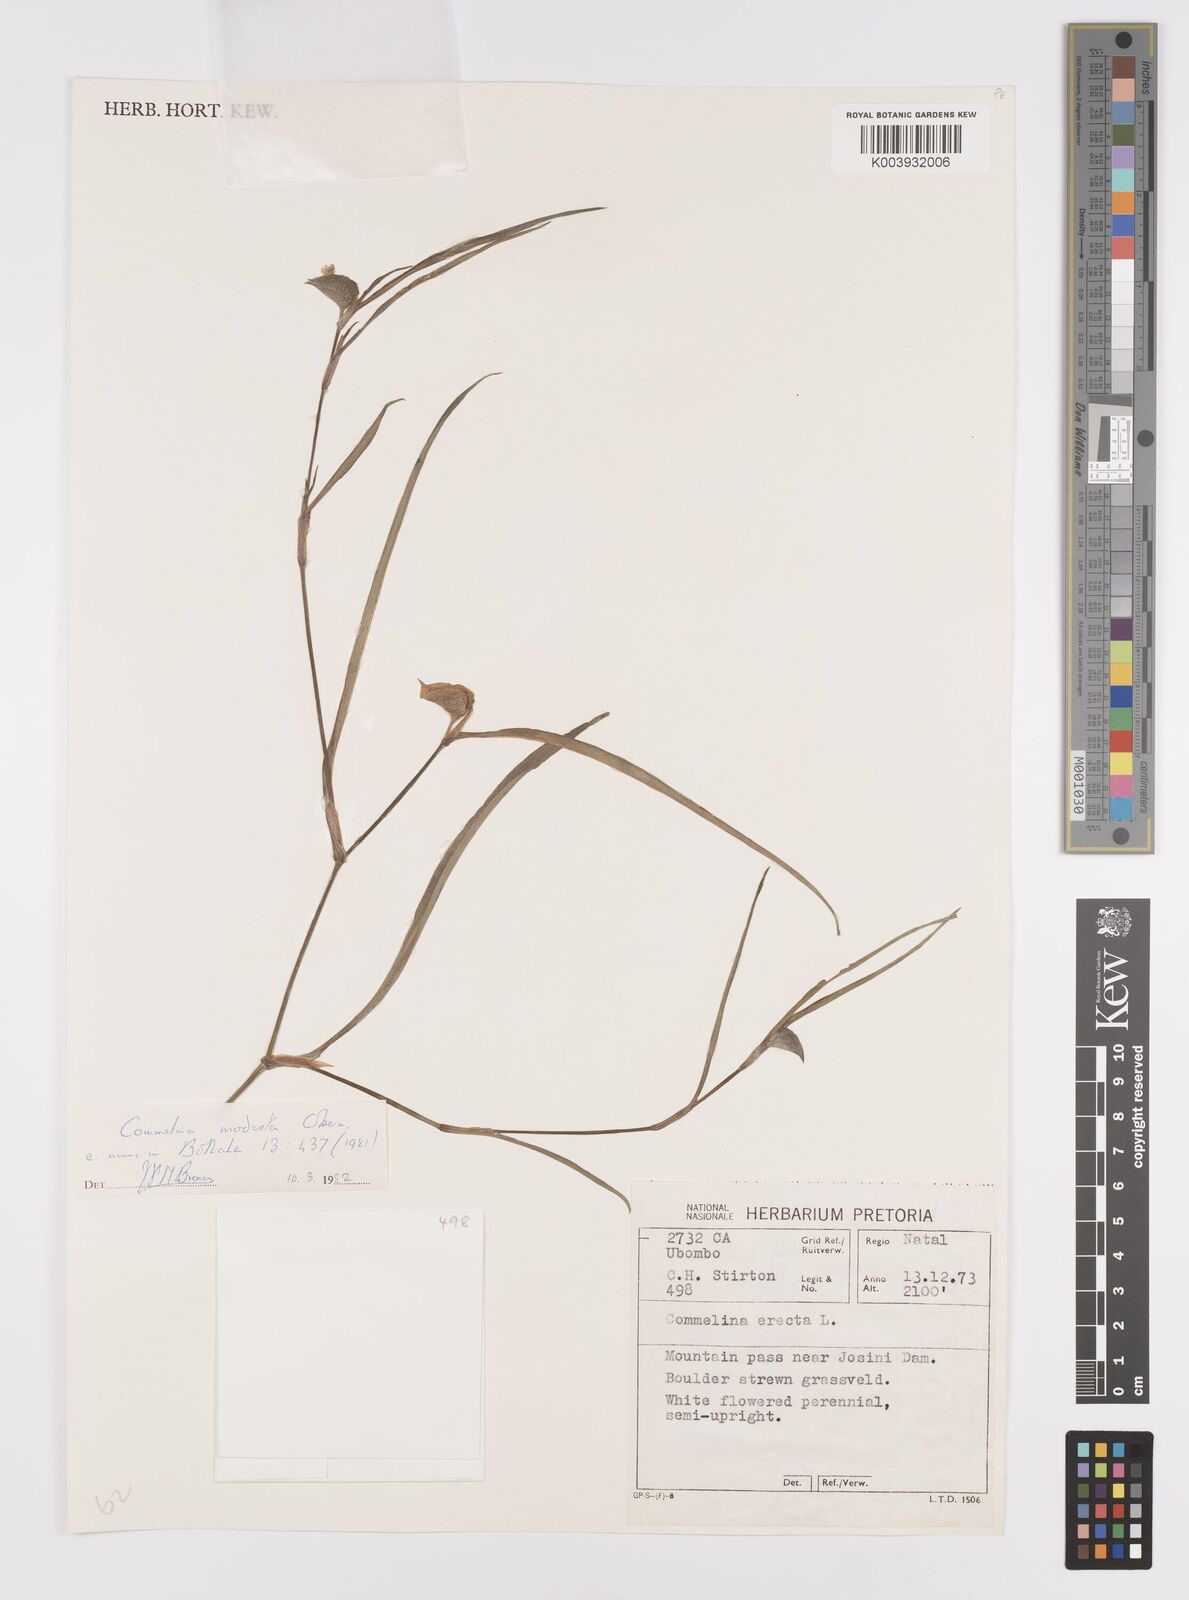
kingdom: Plantae
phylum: Tracheophyta
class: Liliopsida
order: Commelinales
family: Commelinaceae
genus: Commelina
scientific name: Commelina modesta
